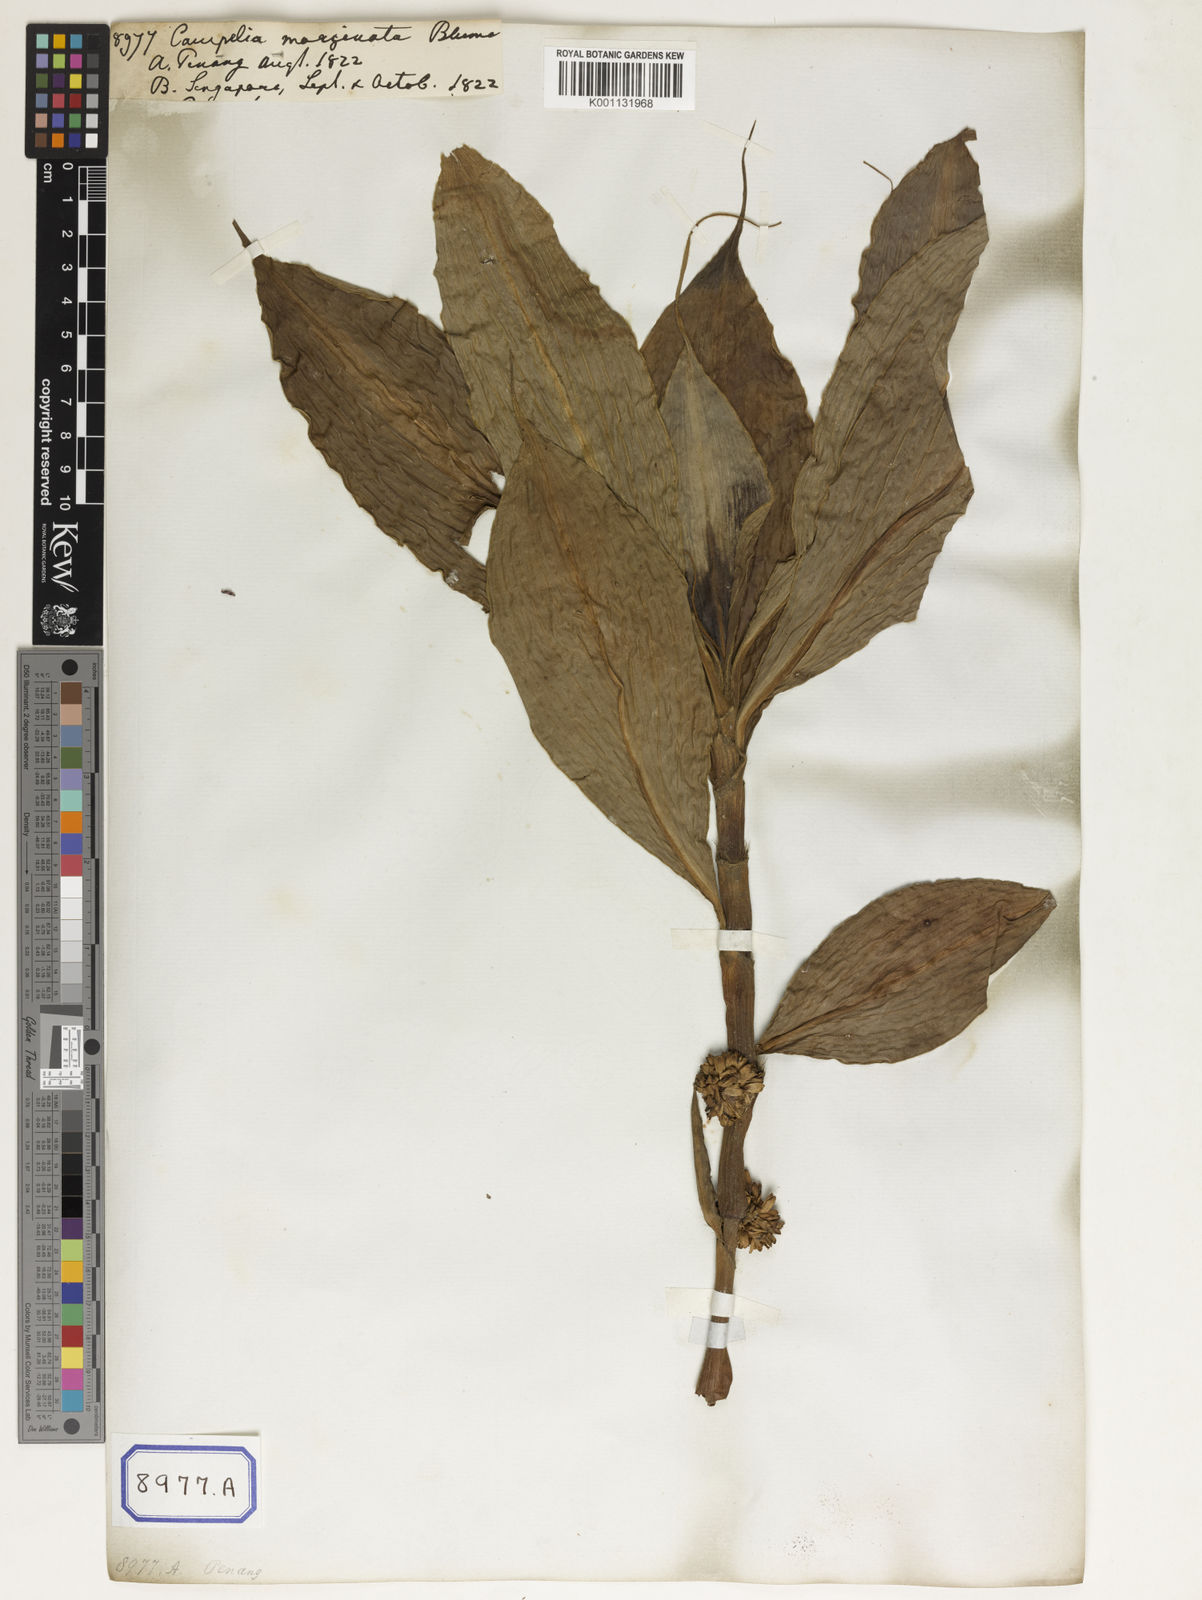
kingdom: Plantae
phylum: Tracheophyta
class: Liliopsida
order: Commelinales
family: Commelinaceae
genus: Amischotolype
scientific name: Amischotolype marginata
